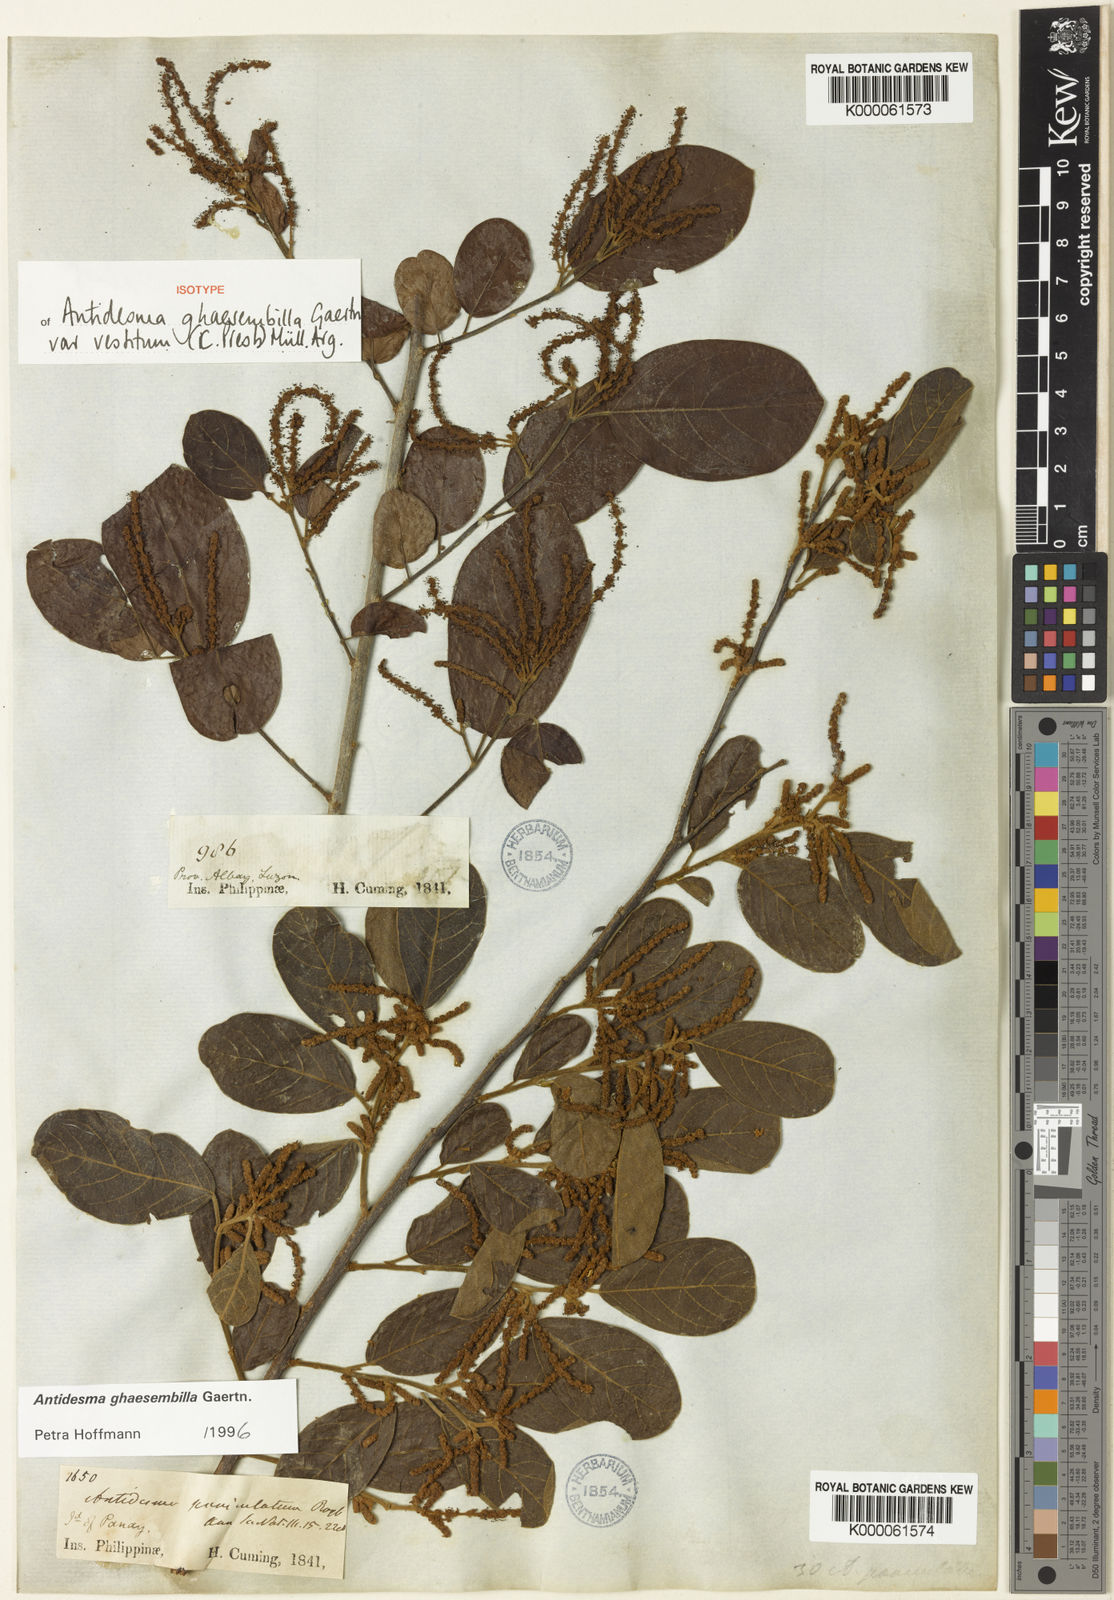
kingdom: Plantae
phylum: Tracheophyta
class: Magnoliopsida
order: Malpighiales
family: Phyllanthaceae
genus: Antidesma
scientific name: Antidesma ghaesembilla
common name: Black currant-tree
